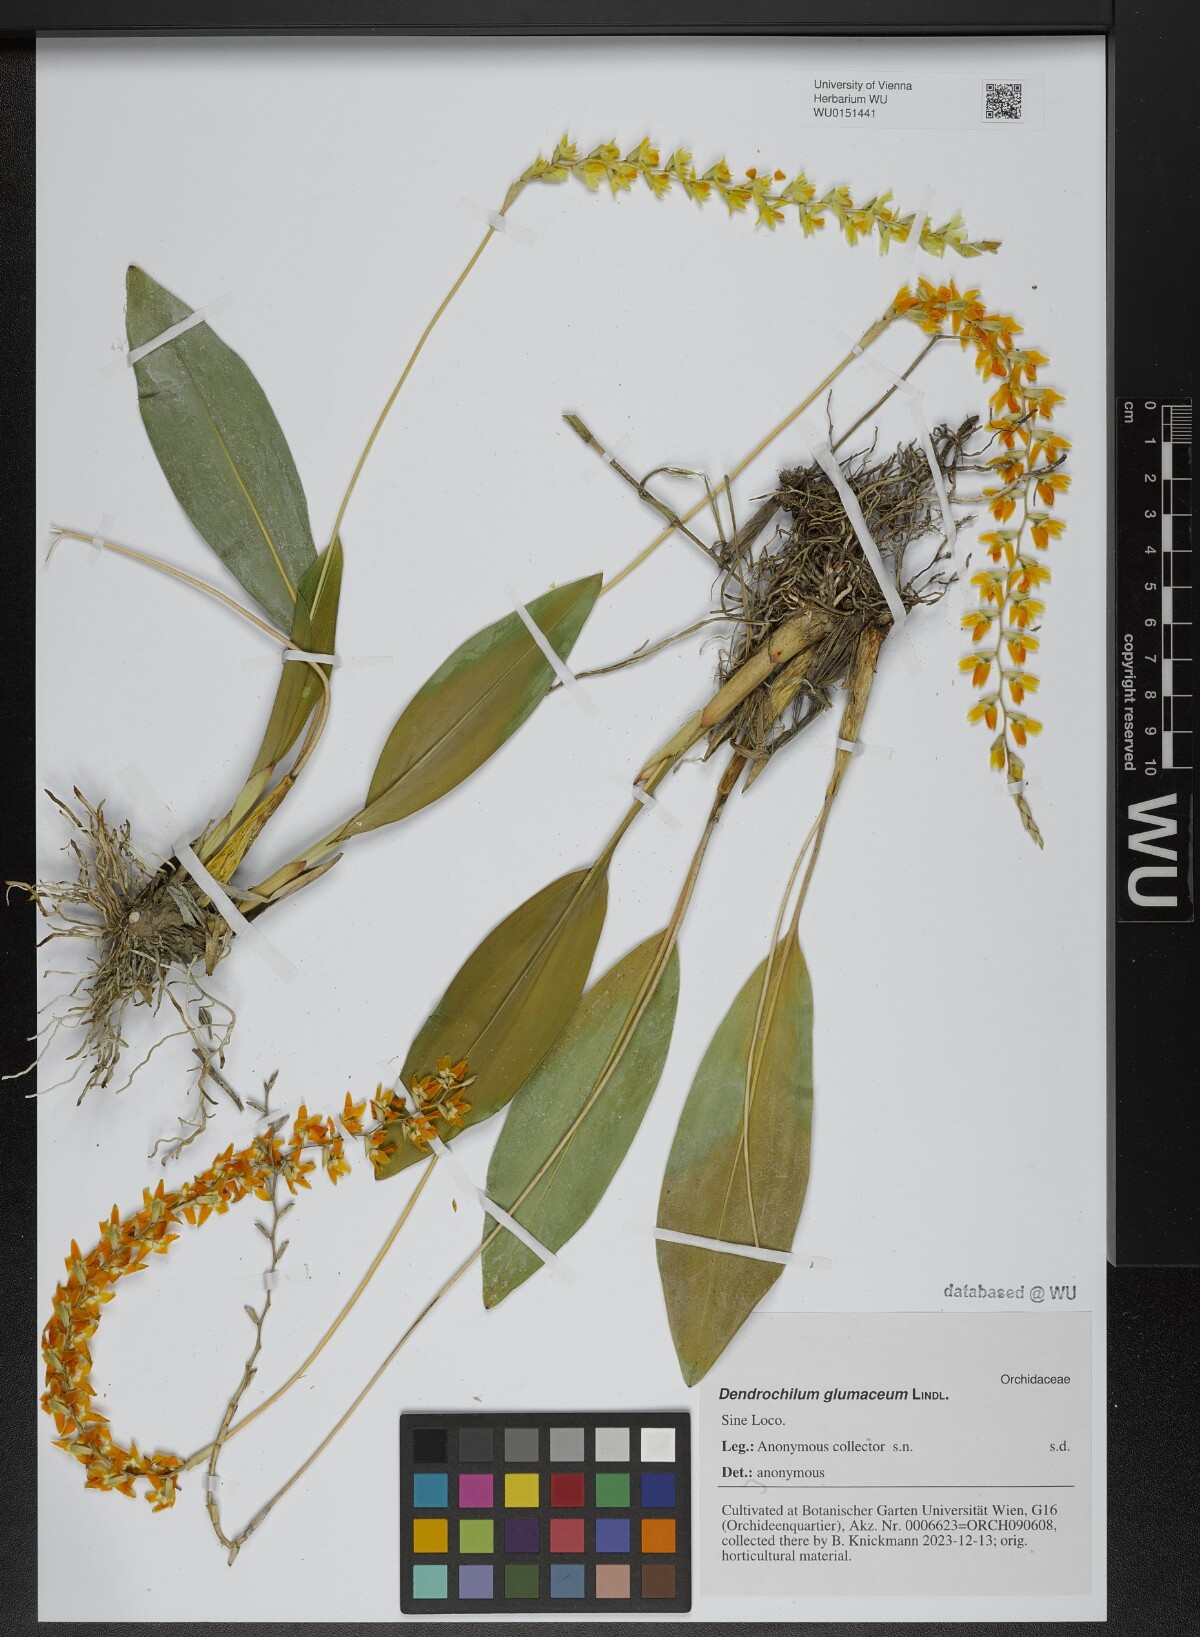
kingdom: Plantae
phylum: Tracheophyta
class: Liliopsida
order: Asparagales
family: Orchidaceae
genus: Coelogyne
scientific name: Coelogyne glumacea
